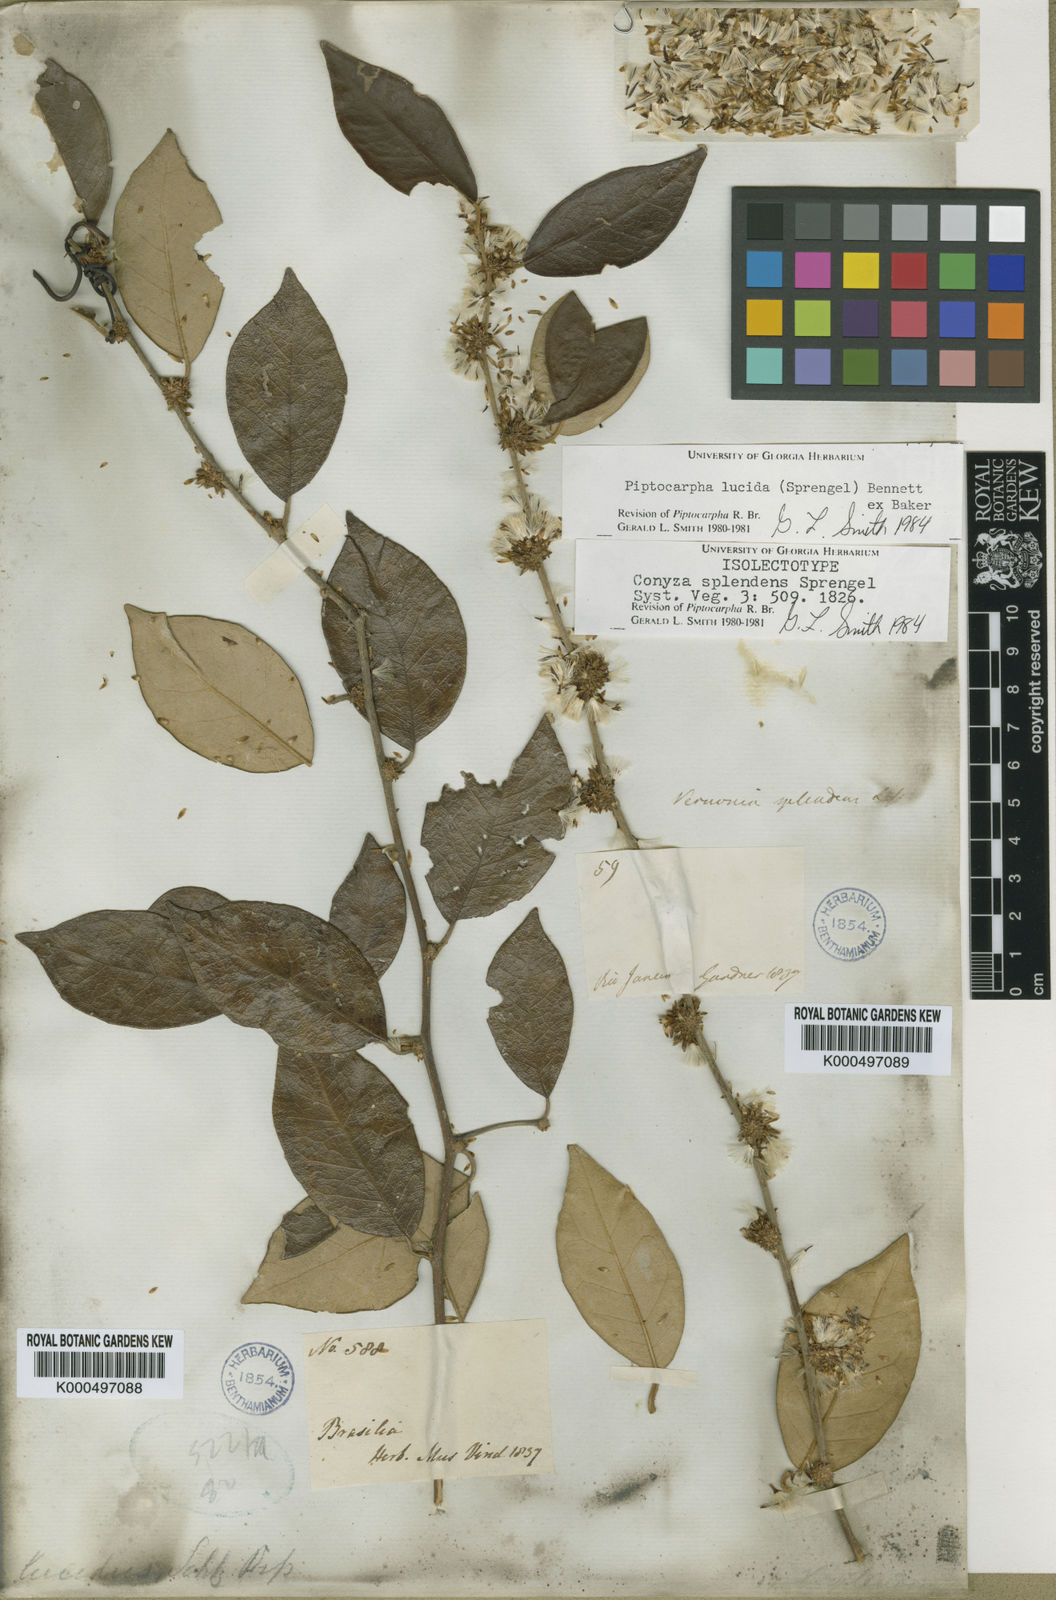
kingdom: Plantae
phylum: Tracheophyta
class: Magnoliopsida
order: Asterales
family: Asteraceae
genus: Piptocarpha
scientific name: Piptocarpha lucida
